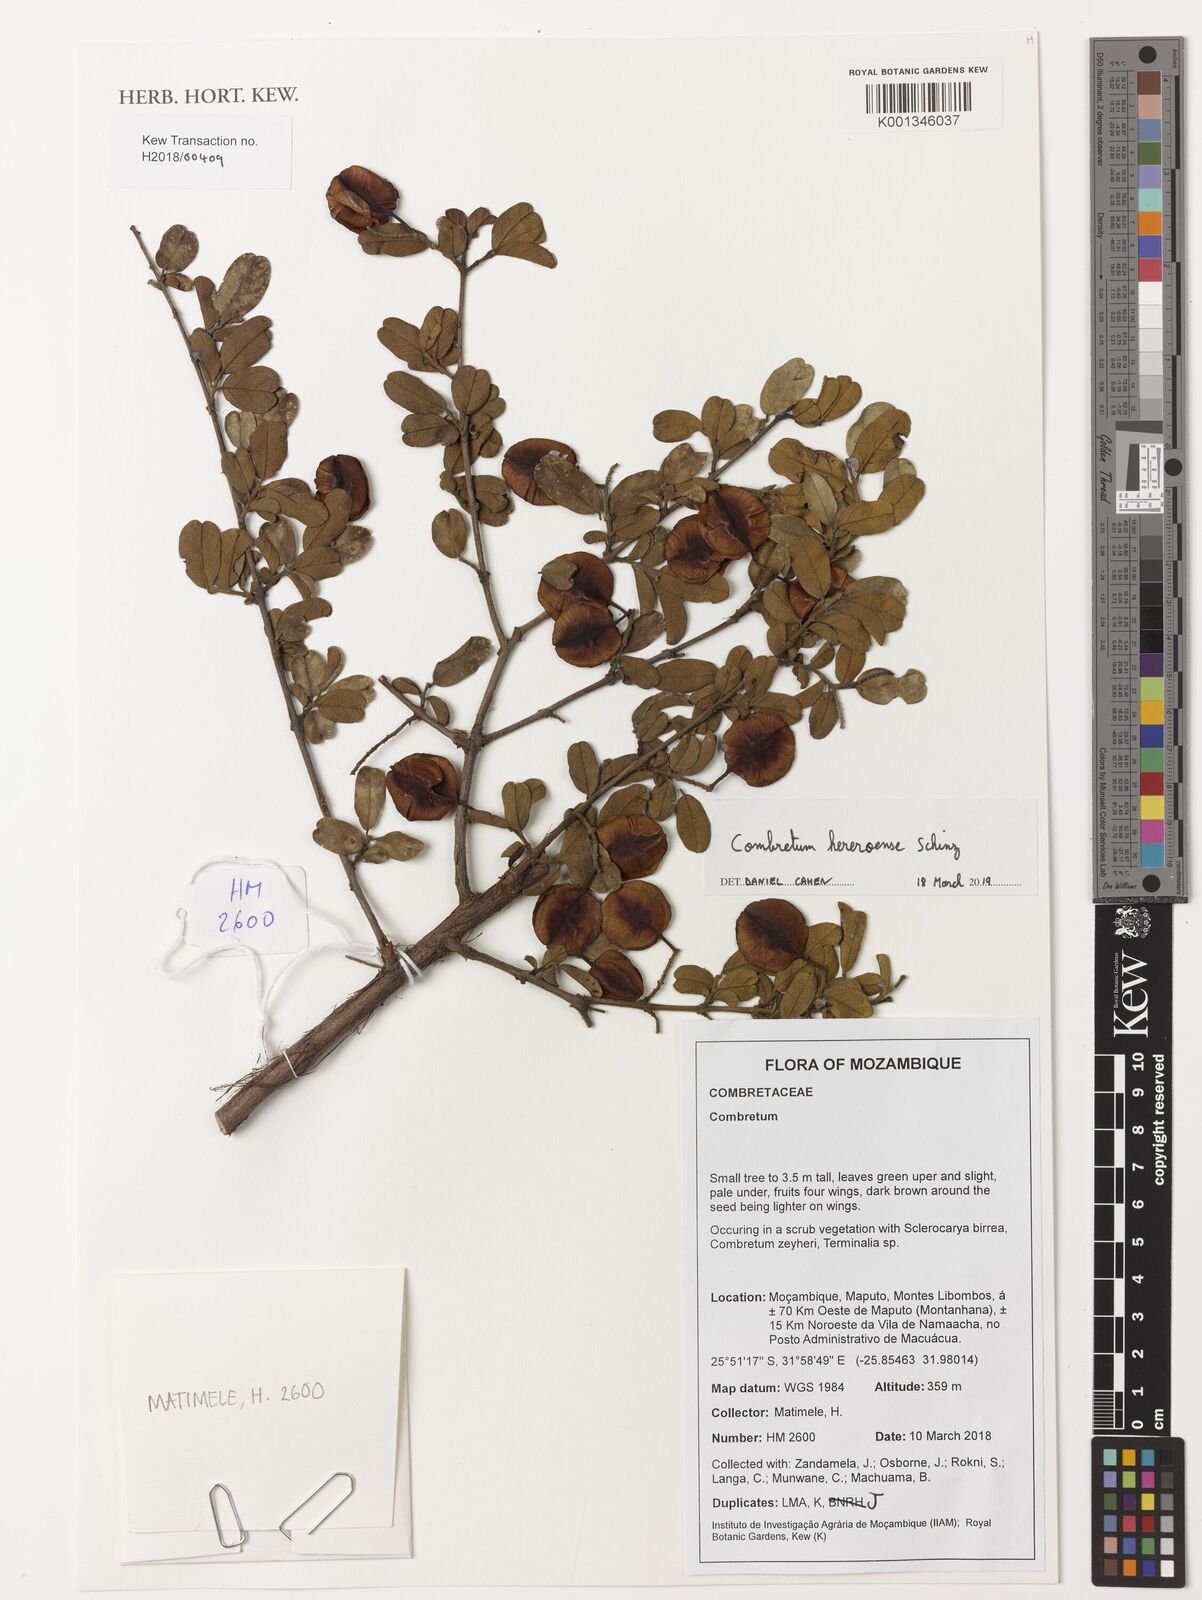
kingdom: Plantae
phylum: Tracheophyta
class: Magnoliopsida
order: Myrtales
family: Combretaceae
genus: Combretum
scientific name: Combretum hereroense
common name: Russet bushwillow
